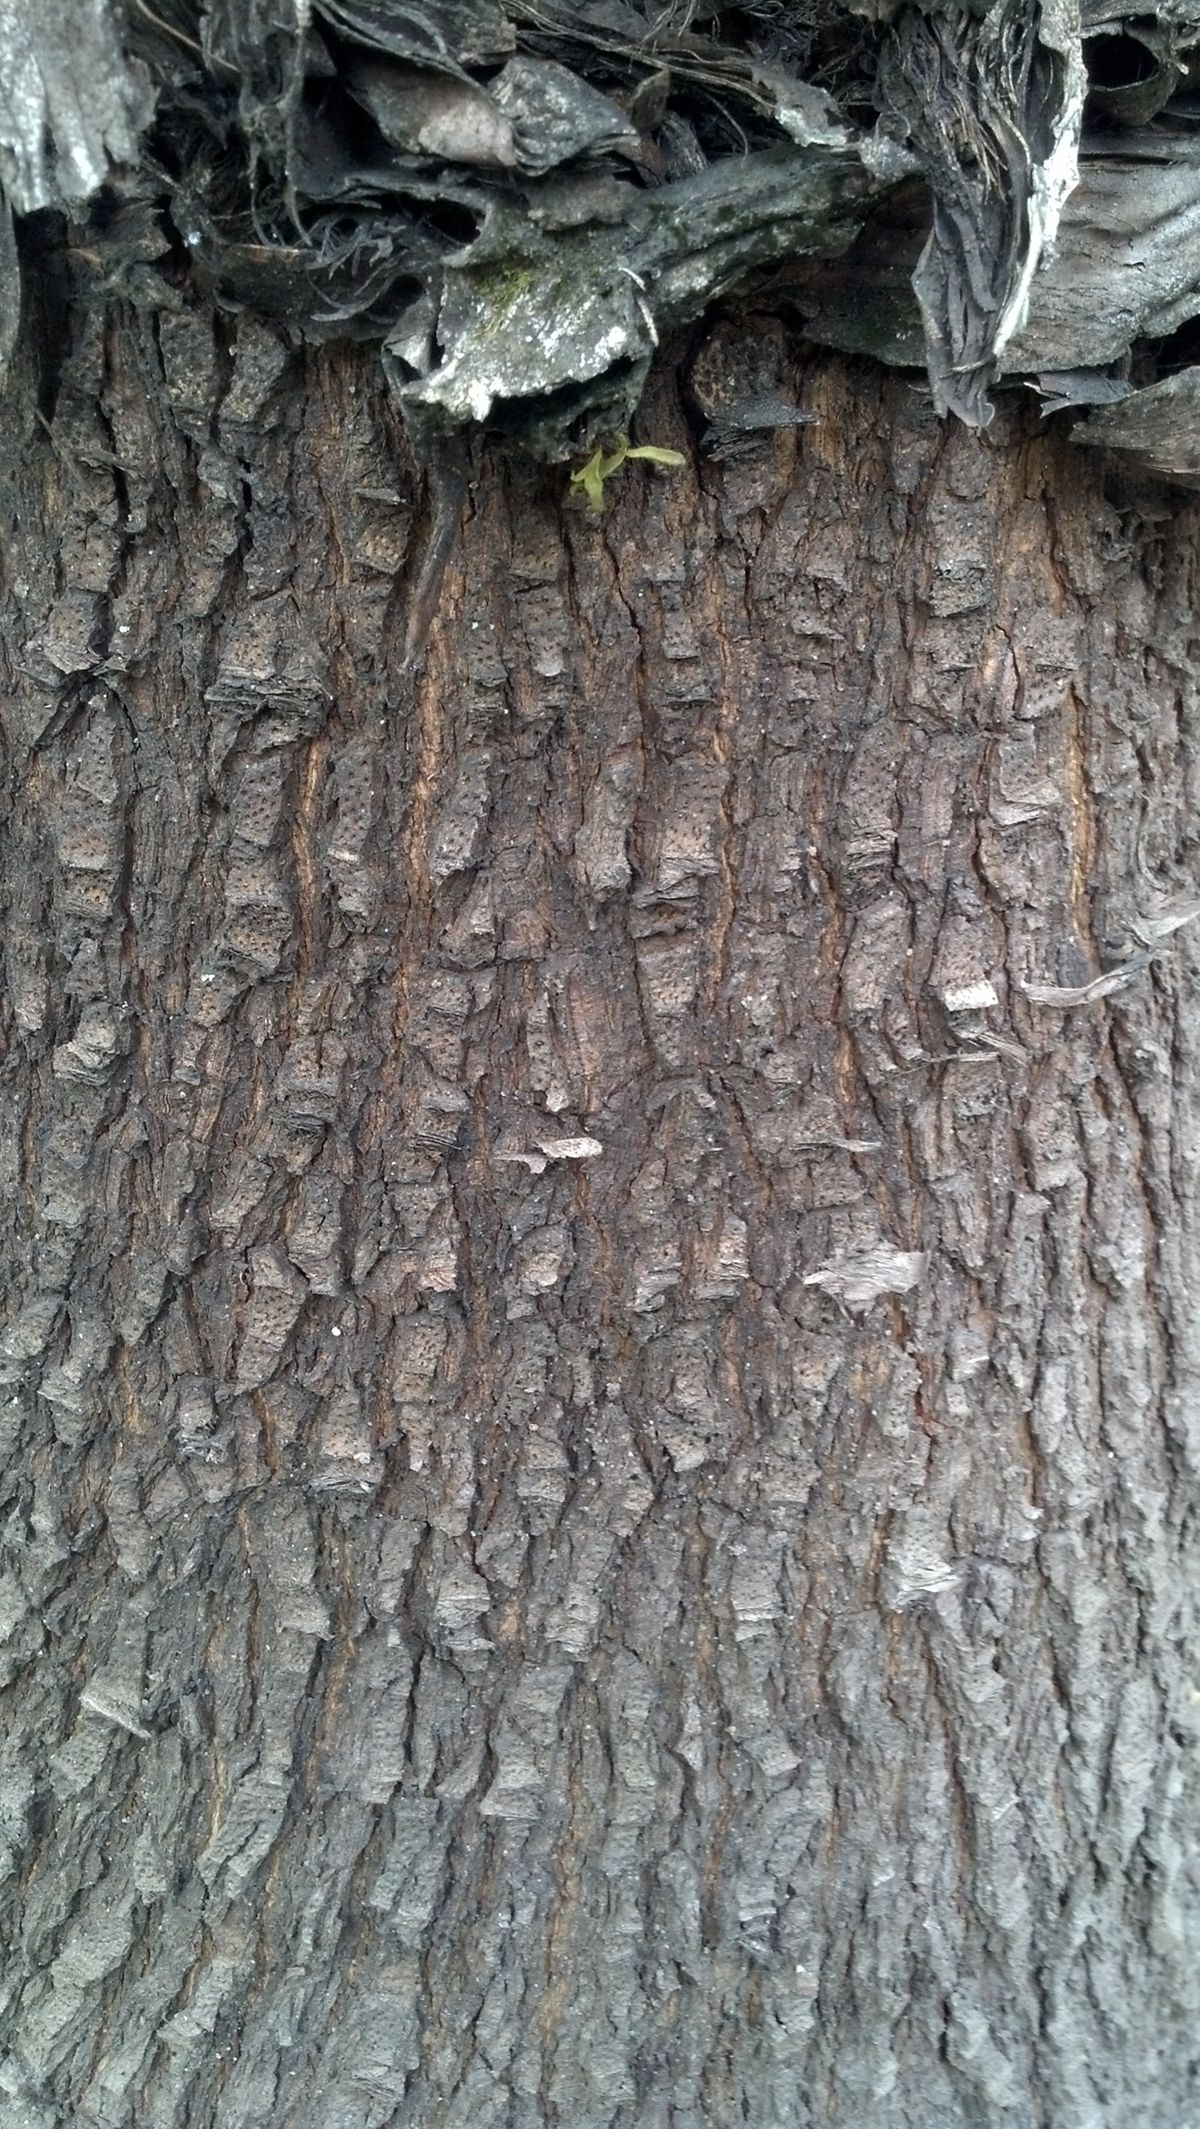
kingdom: Plantae
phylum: Tracheophyta
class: Liliopsida
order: Asparagales
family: Asparagaceae
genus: Furcraea
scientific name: Furcraea macdougallii
